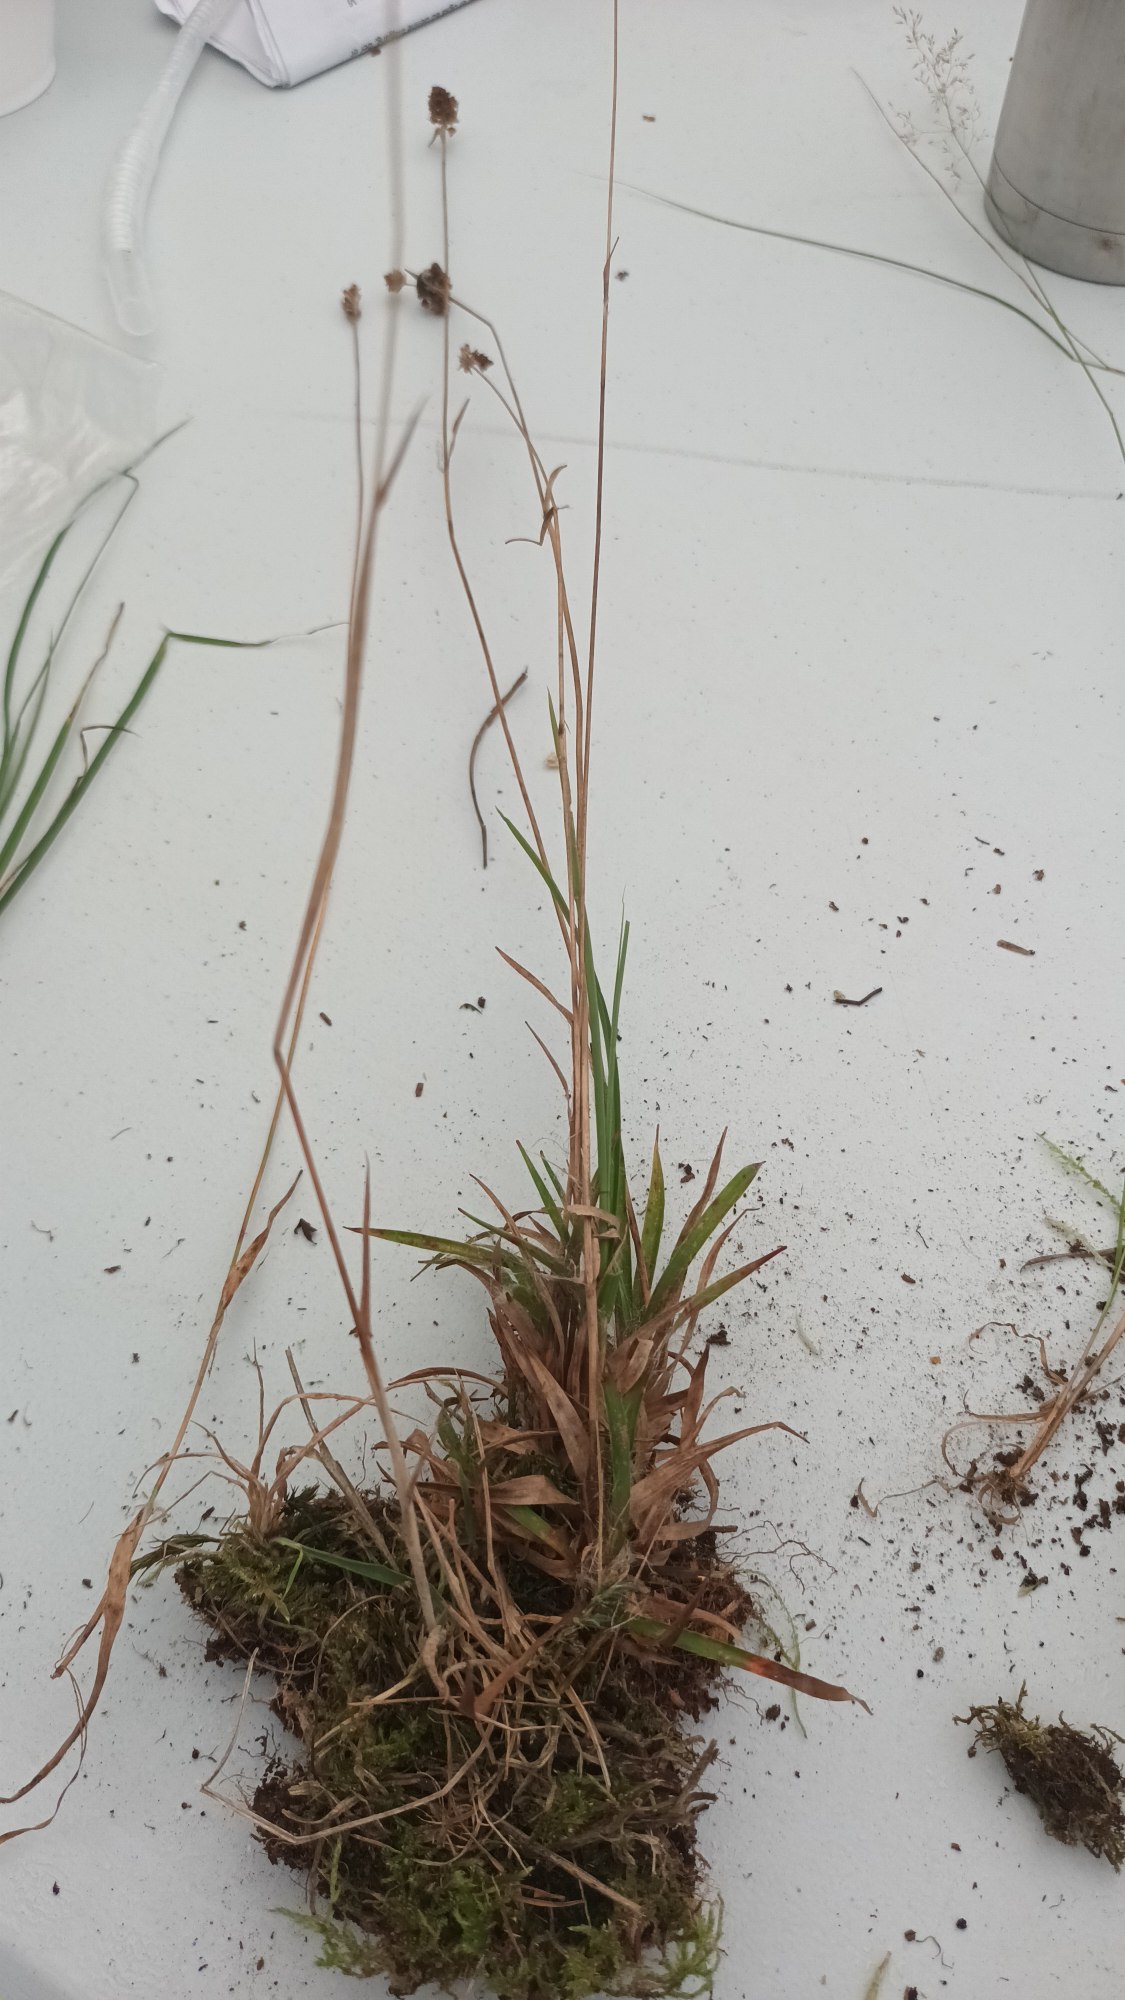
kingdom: Plantae
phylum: Tracheophyta
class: Liliopsida
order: Poales
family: Juncaceae
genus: Luzula
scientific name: Luzula congesta
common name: Hoved-frytle
